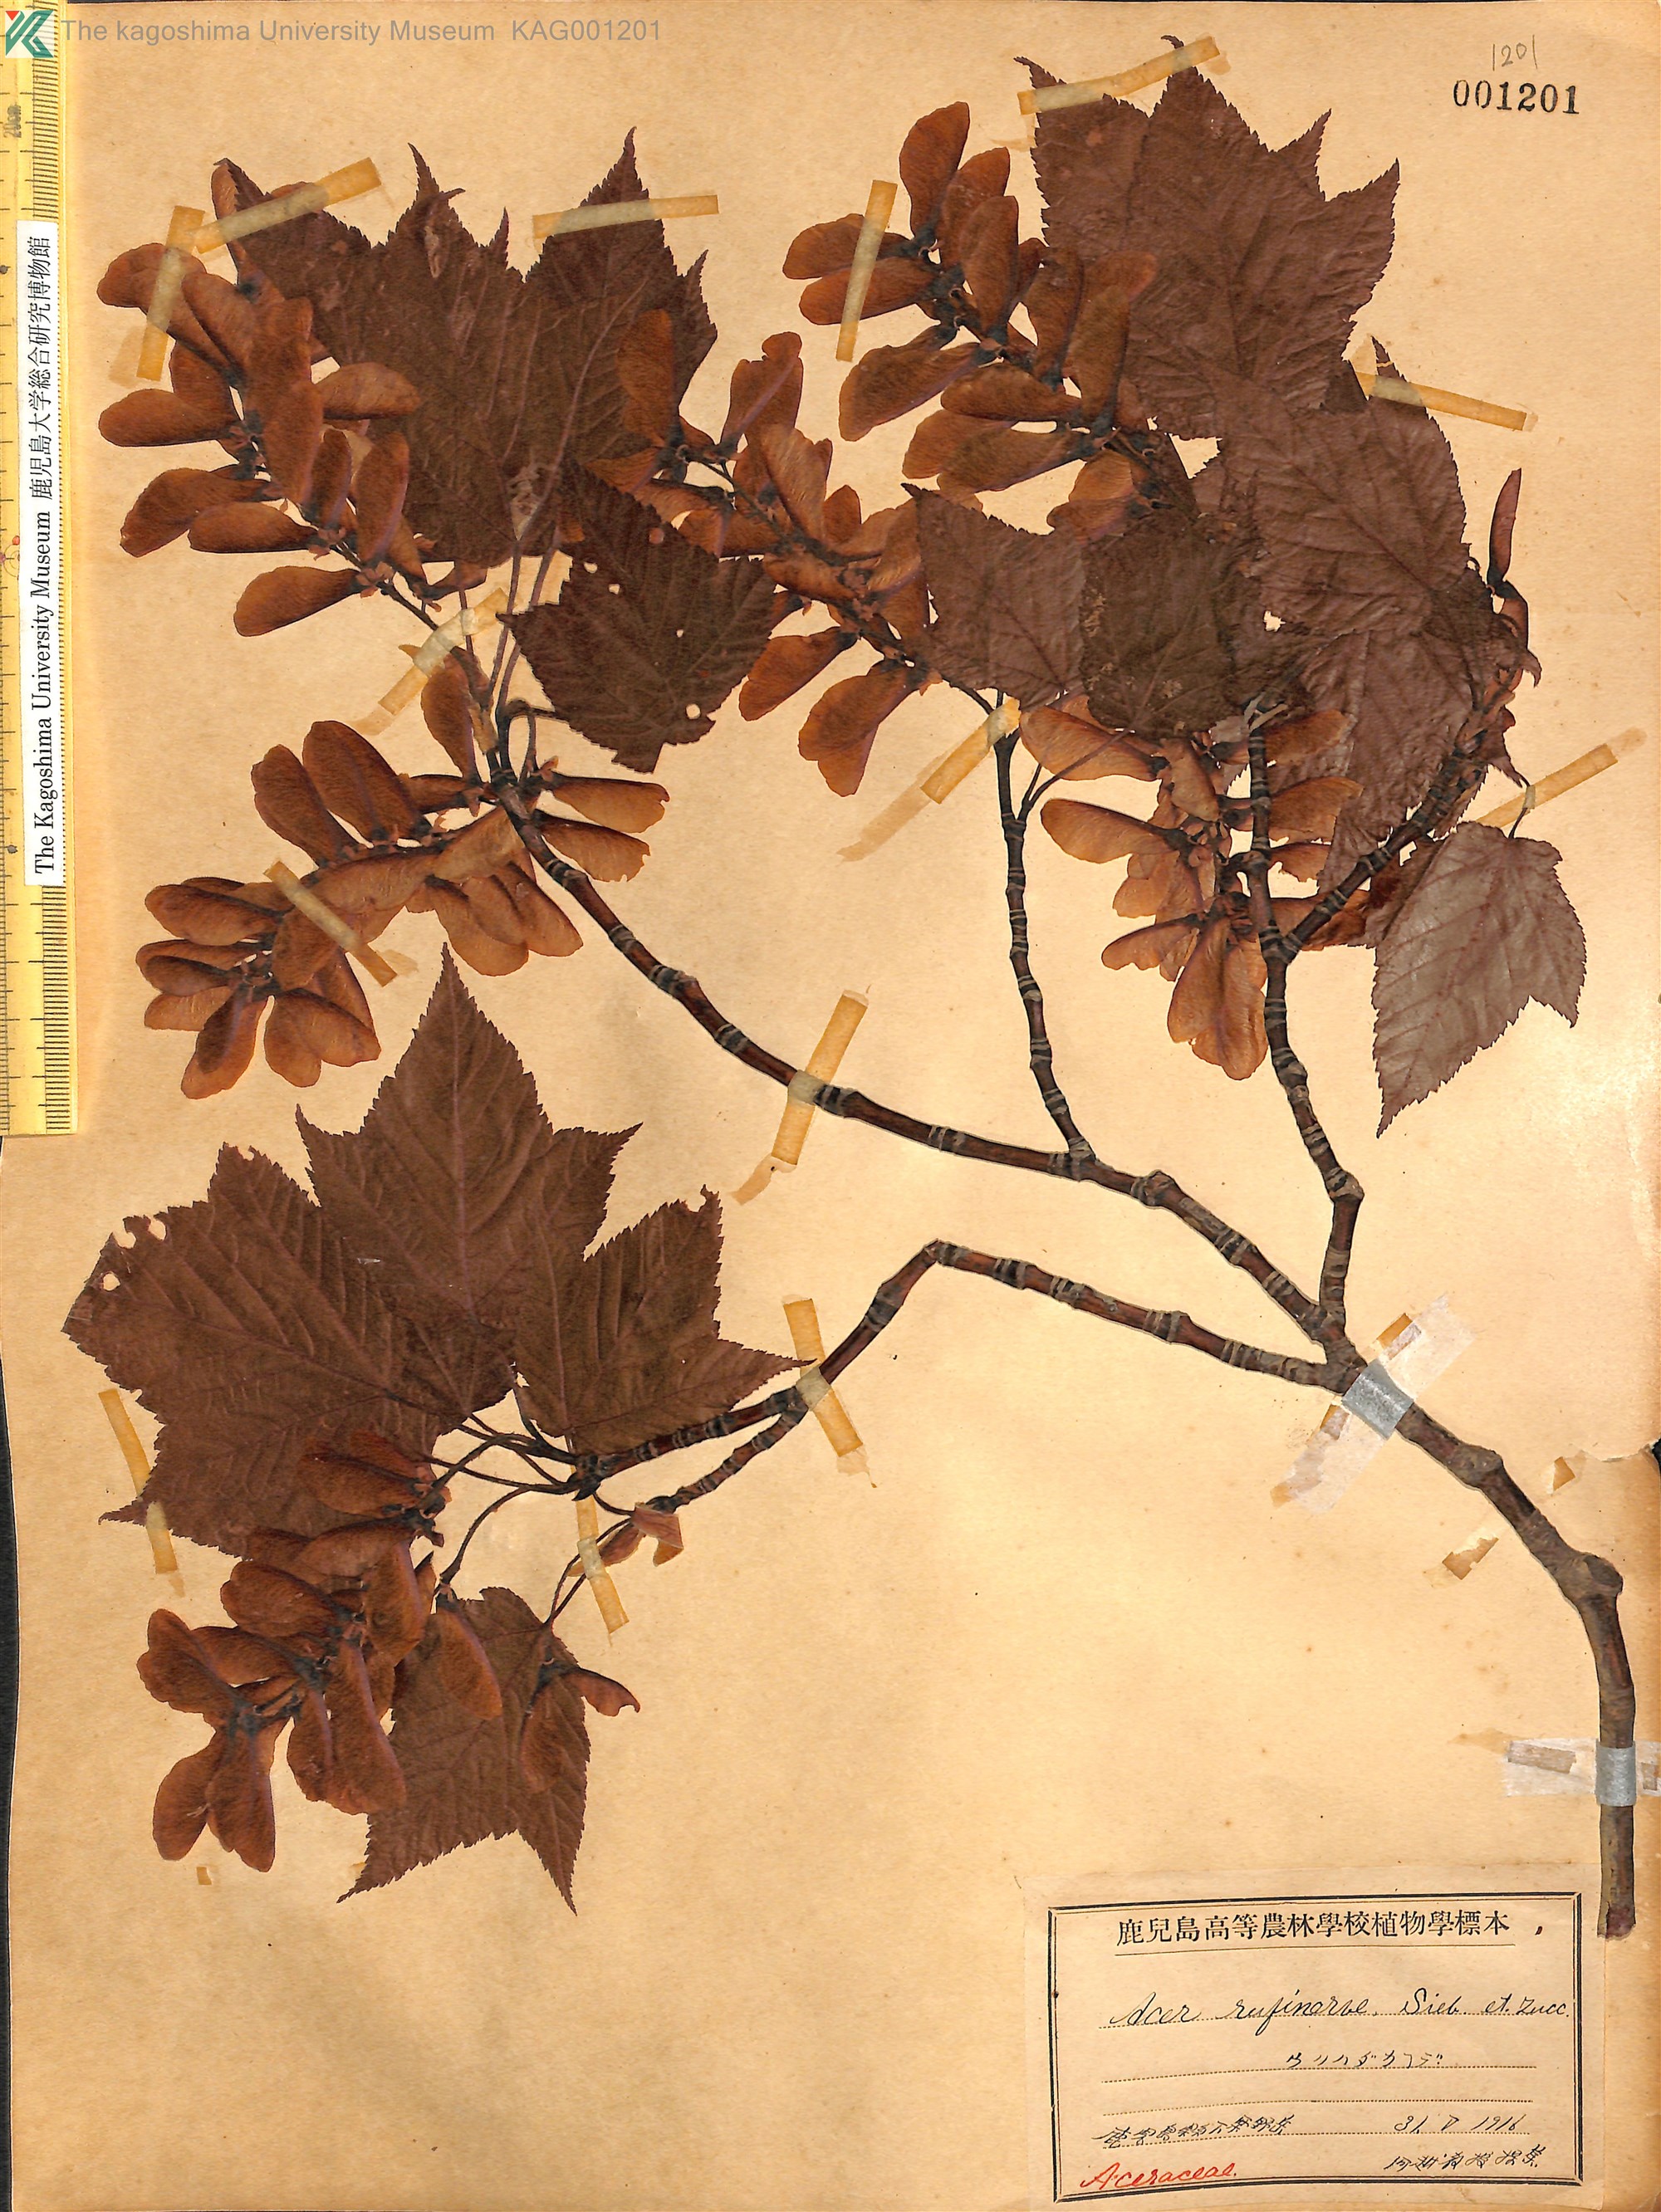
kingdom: Plantae
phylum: Tracheophyta
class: Magnoliopsida
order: Sapindales
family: Sapindaceae
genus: Acer
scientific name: Acer rufinerve
